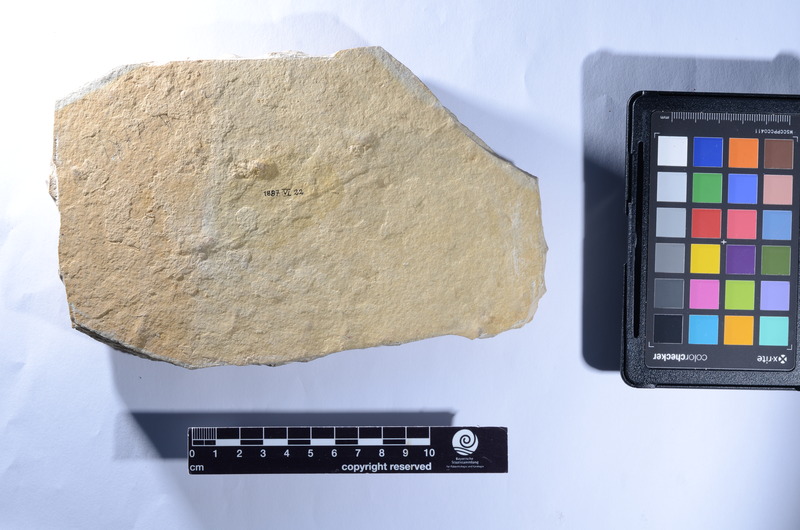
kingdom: Animalia
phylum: Chordata
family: Macrosemiidae
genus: Histionotus
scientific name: Histionotus oberndorferi
